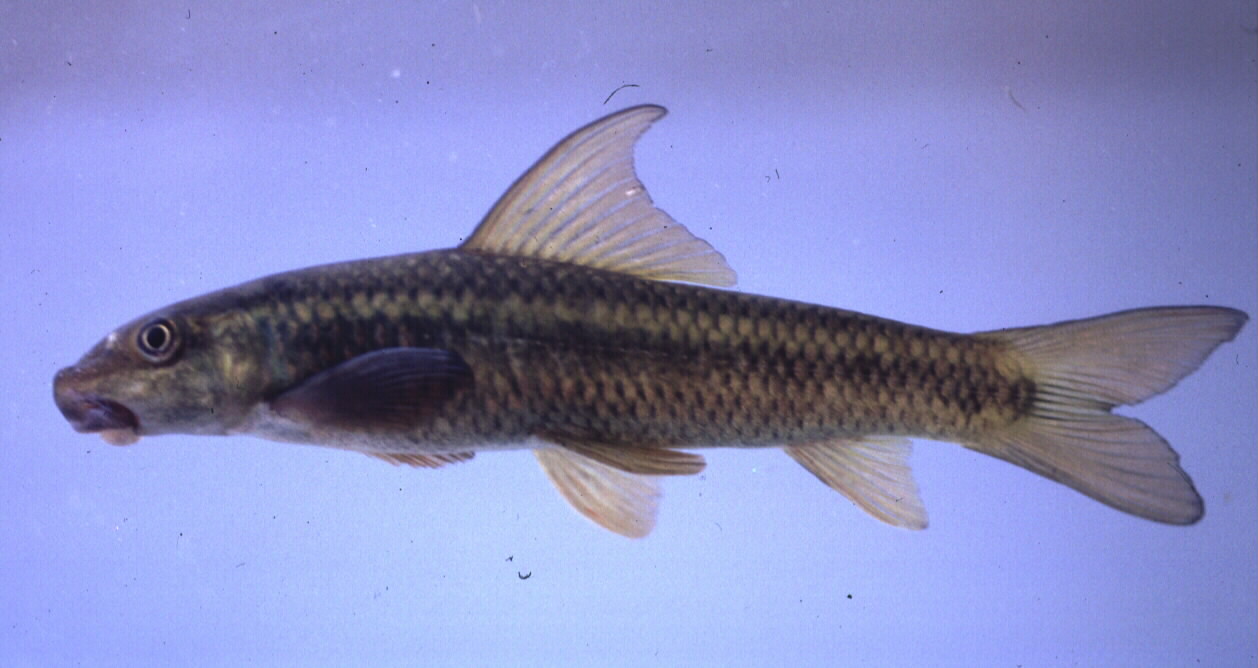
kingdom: Animalia
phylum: Chordata
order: Cypriniformes
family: Cyprinidae
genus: Labeo
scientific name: Labeo ansorgii
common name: Cunene labeo
